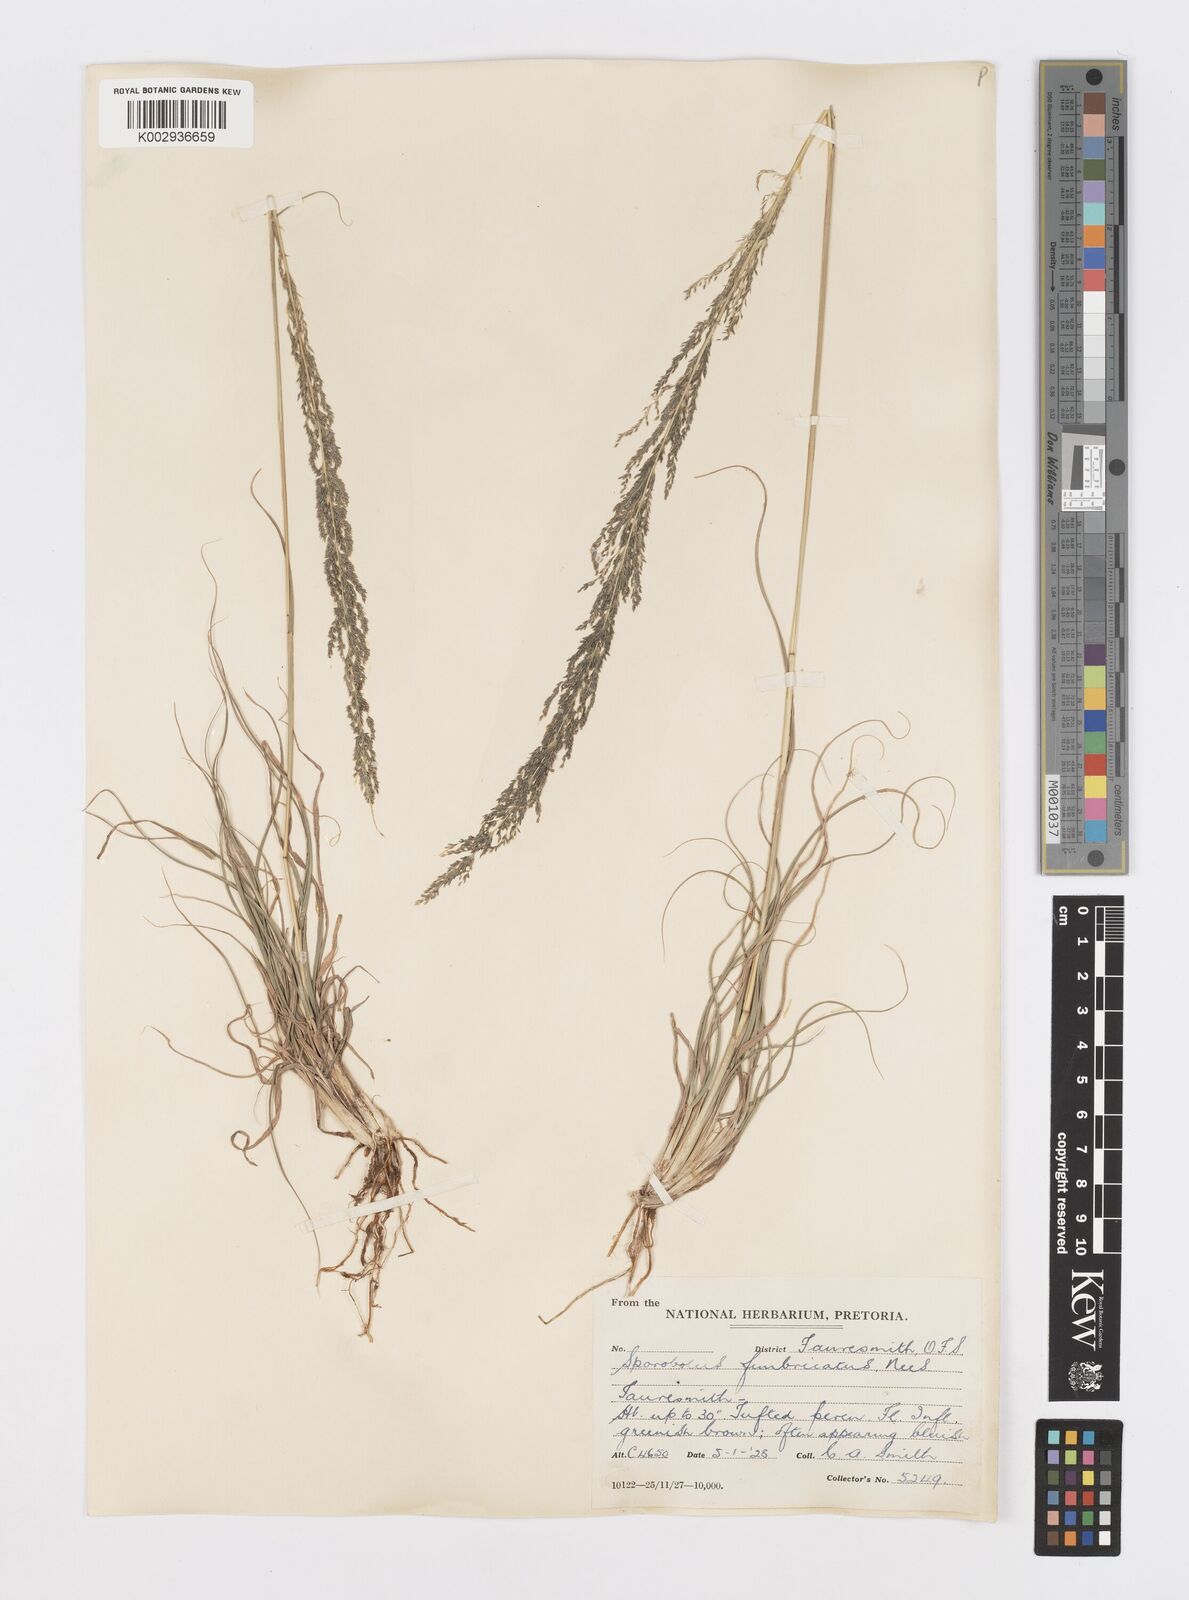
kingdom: Plantae
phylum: Tracheophyta
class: Liliopsida
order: Poales
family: Poaceae
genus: Sporobolus
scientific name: Sporobolus fimbriatus
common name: Fringed dropseed
